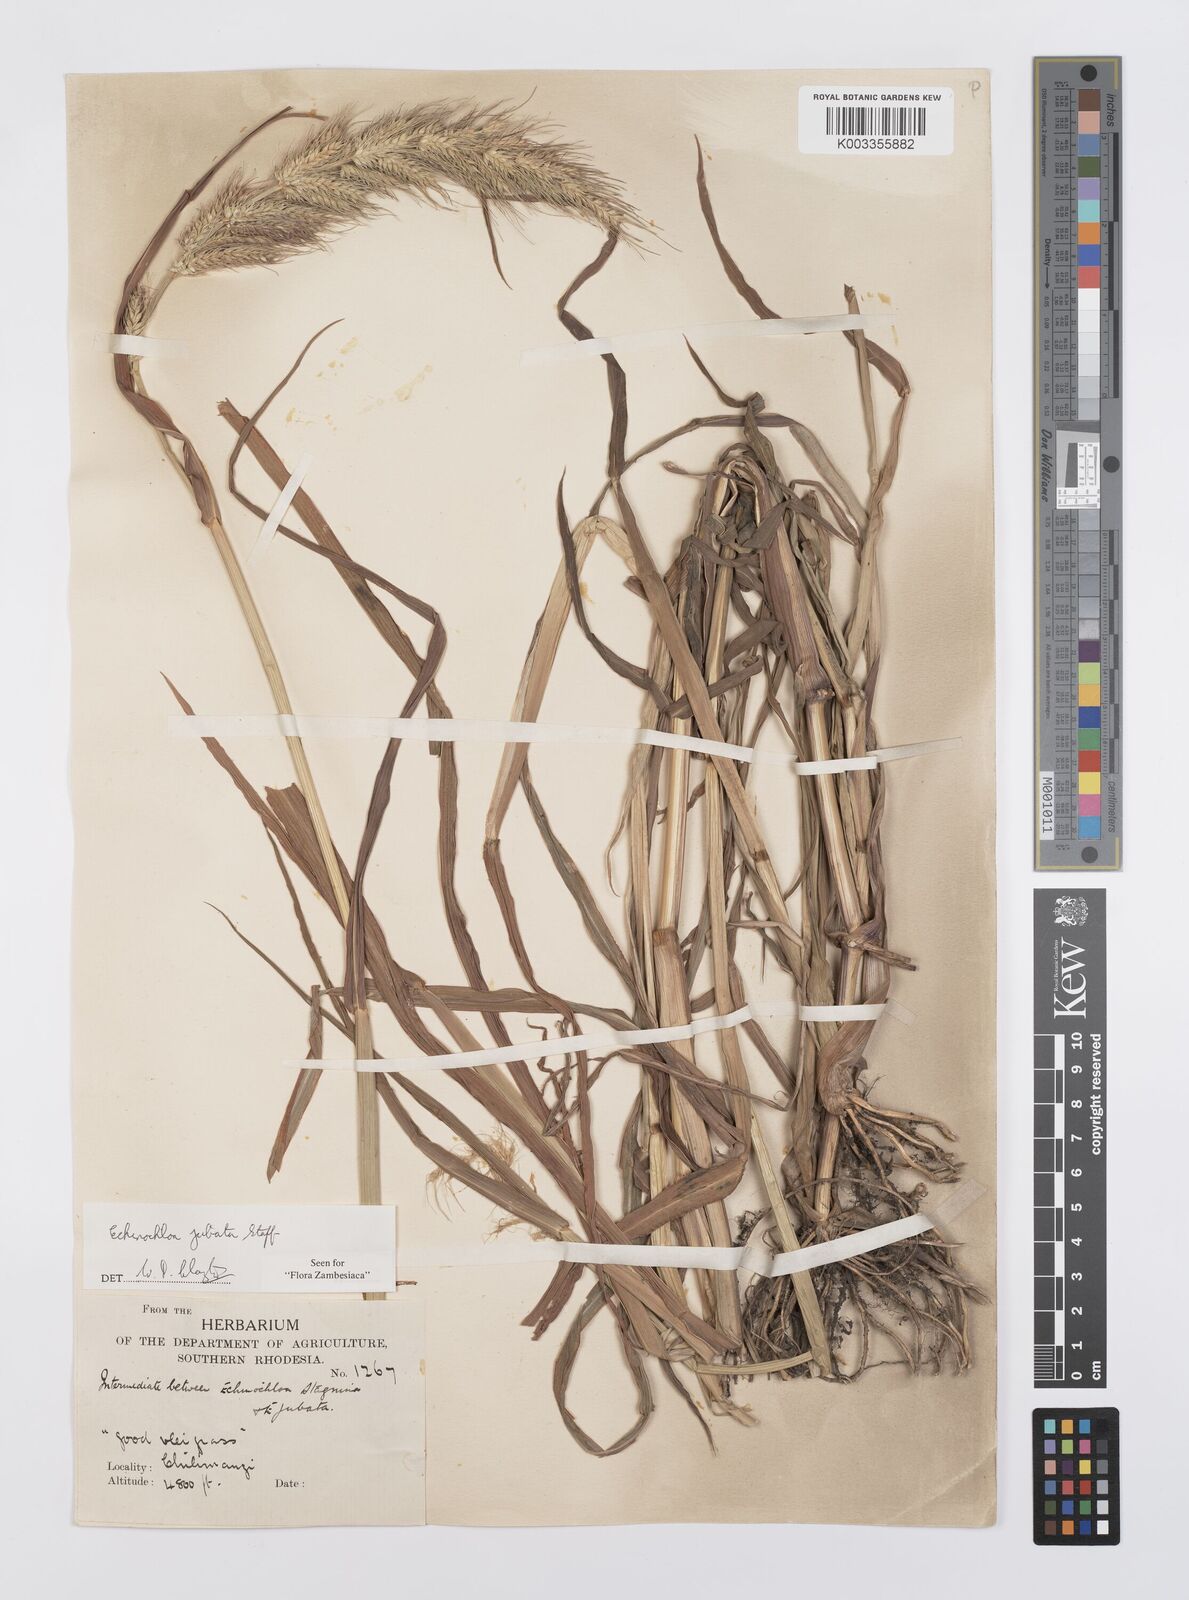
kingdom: Plantae
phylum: Tracheophyta
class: Liliopsida
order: Poales
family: Poaceae
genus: Echinochloa
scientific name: Echinochloa jubata
